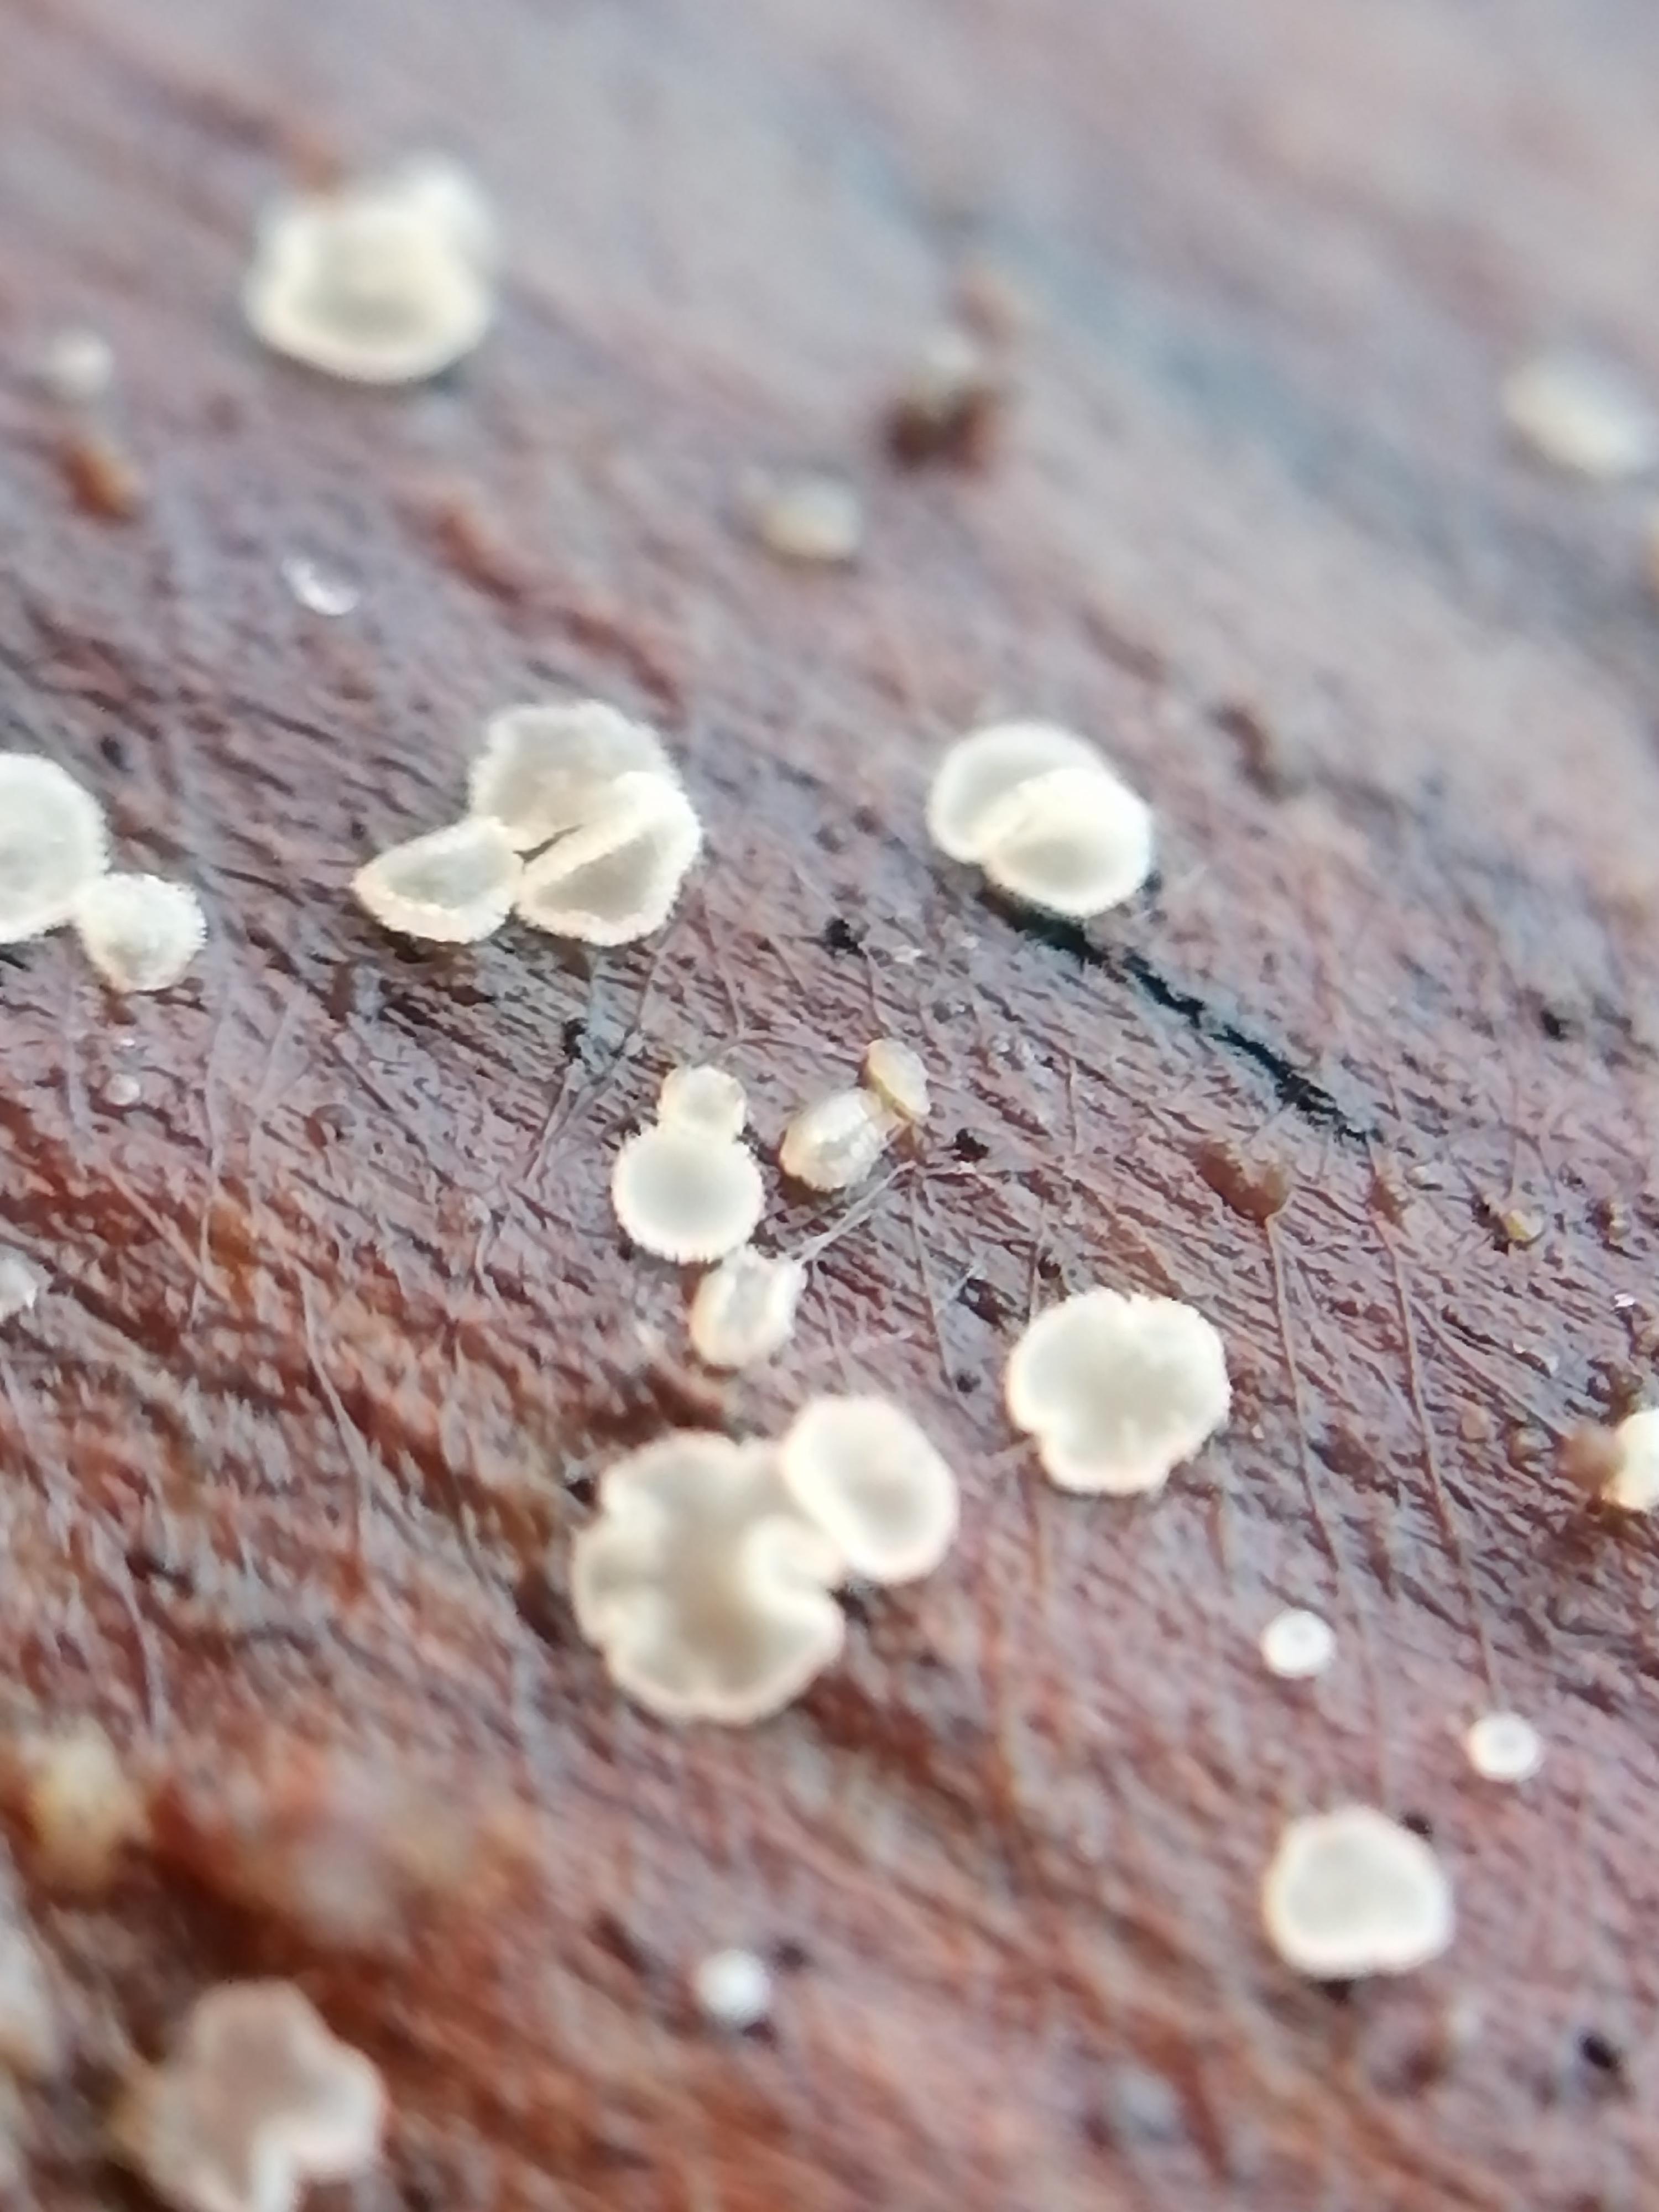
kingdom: Fungi
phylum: Ascomycota
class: Leotiomycetes
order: Helotiales
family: Hyaloscyphaceae
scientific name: Hyaloscyphaceae
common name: frynseskivefamilien
